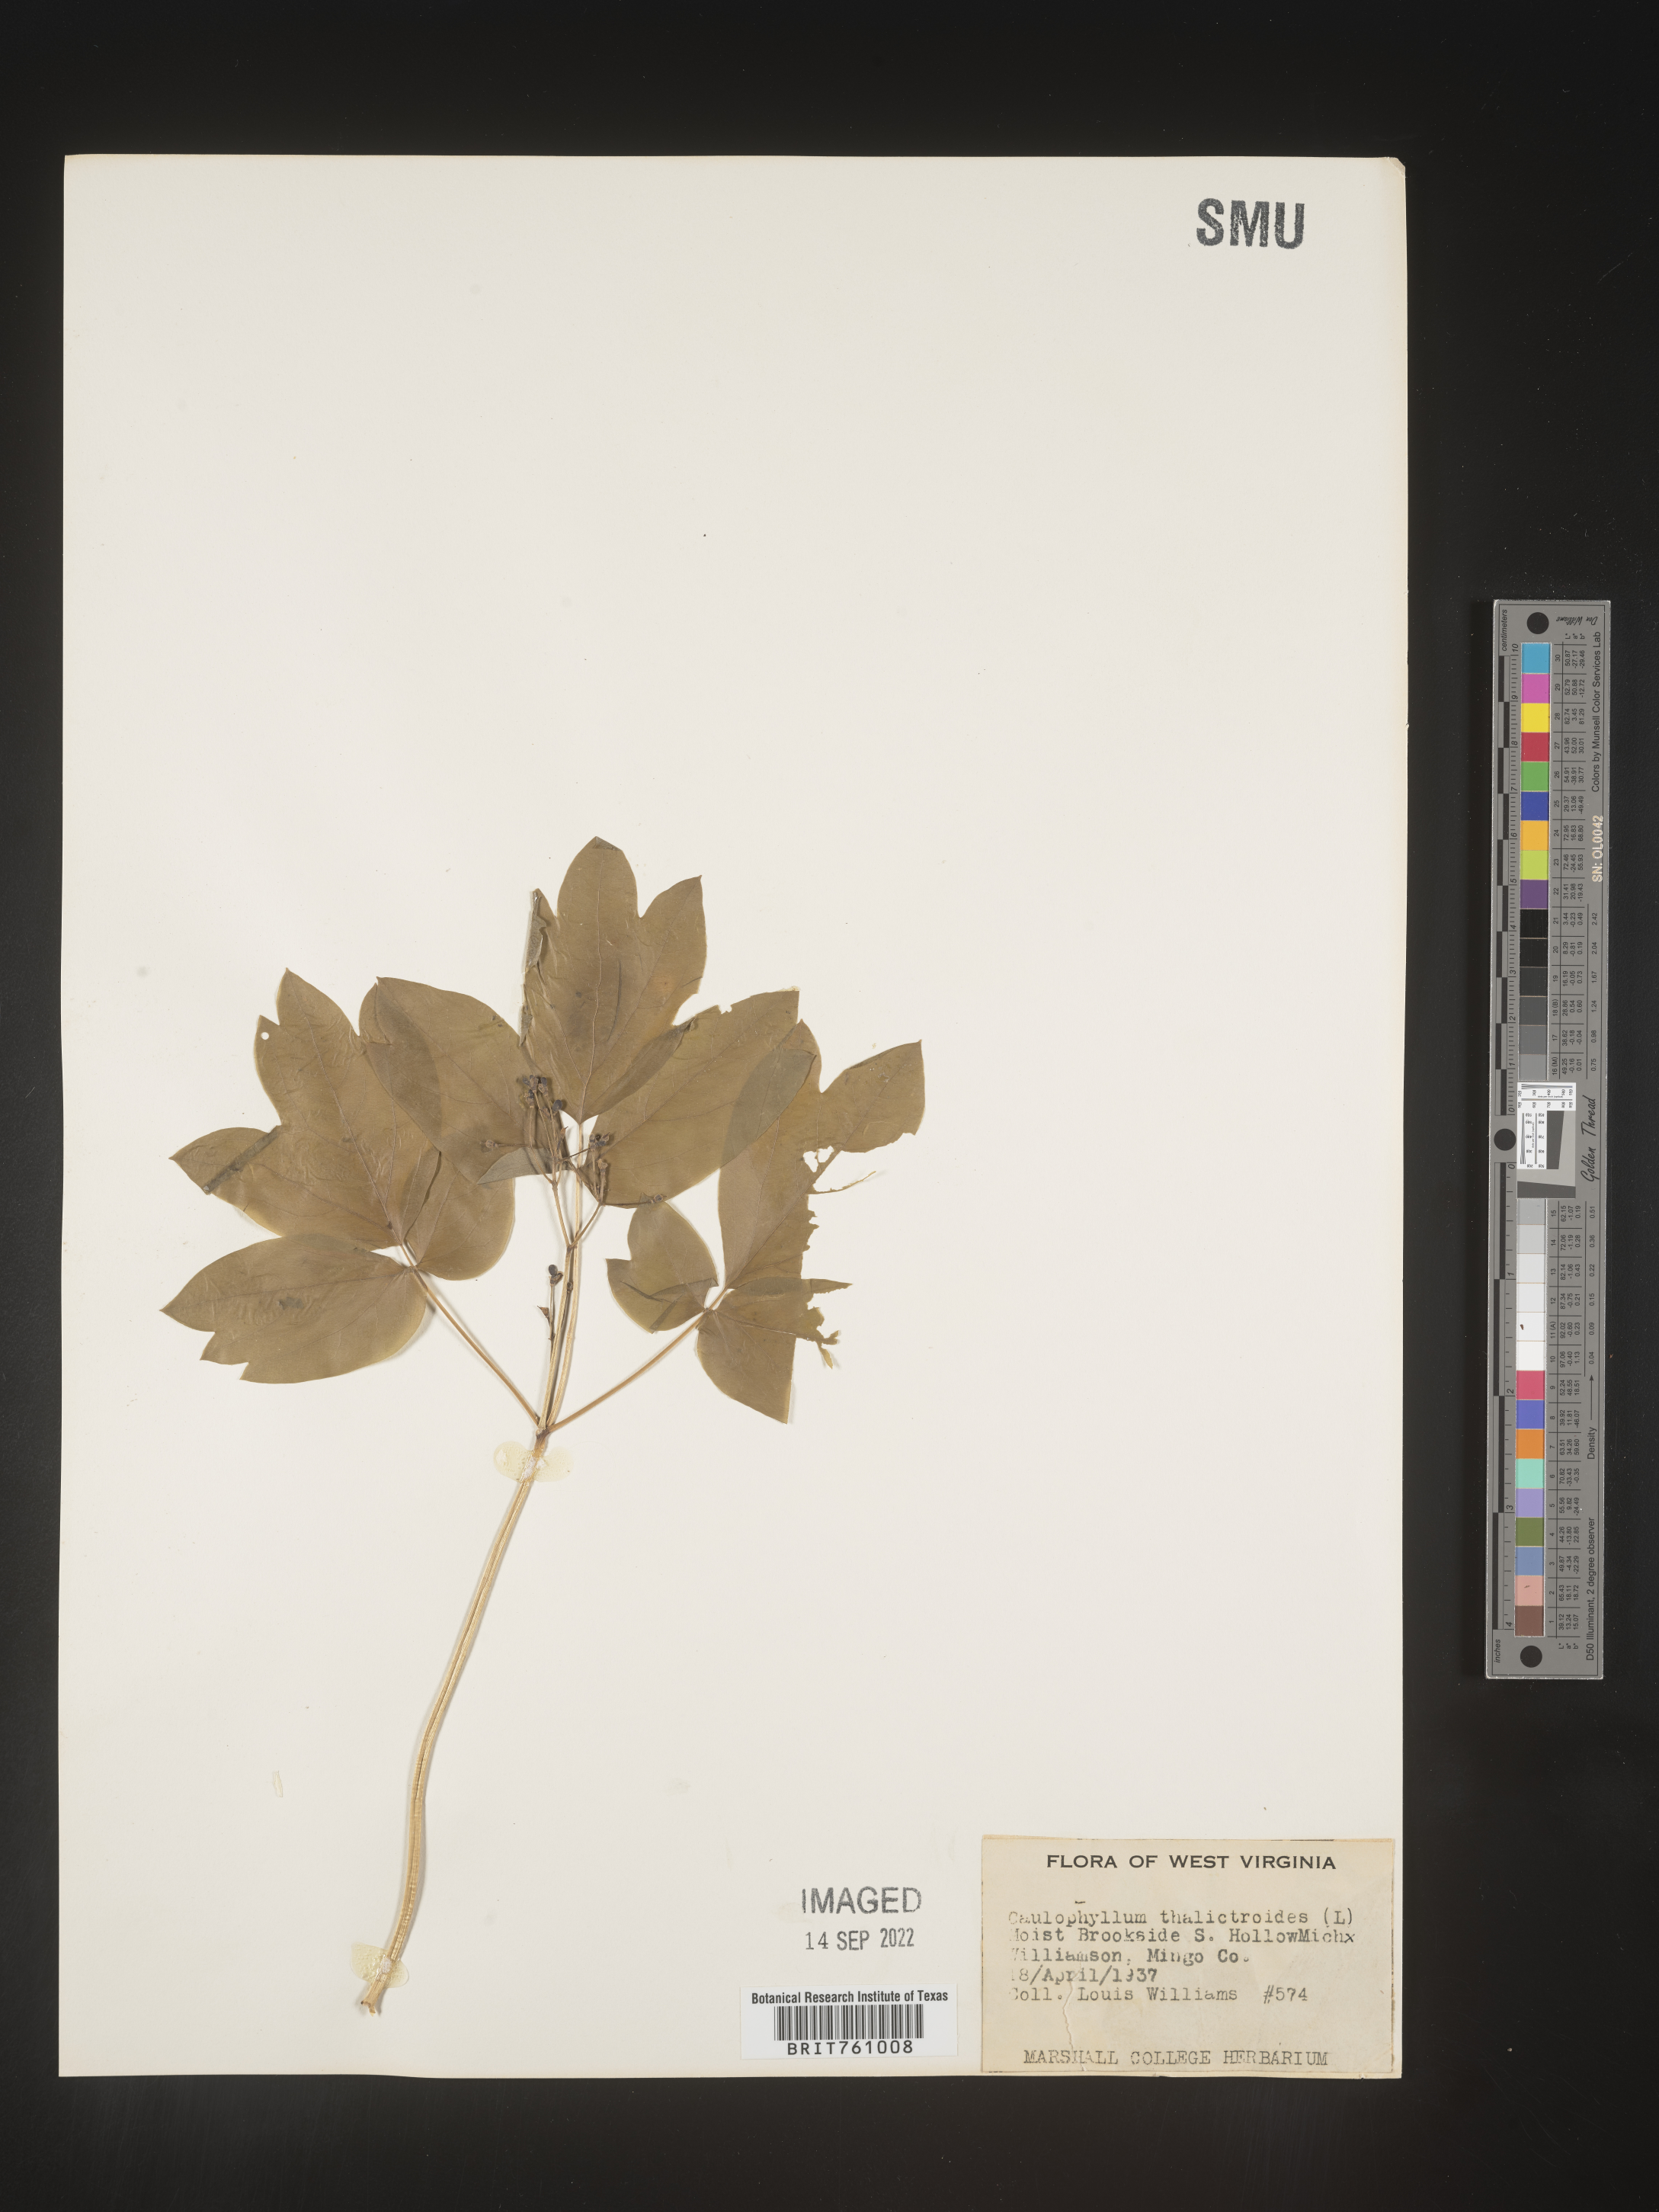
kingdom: Plantae
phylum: Tracheophyta
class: Magnoliopsida
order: Ranunculales
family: Berberidaceae
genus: Caulophyllum
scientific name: Caulophyllum thalictroides
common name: Blue cohosh
